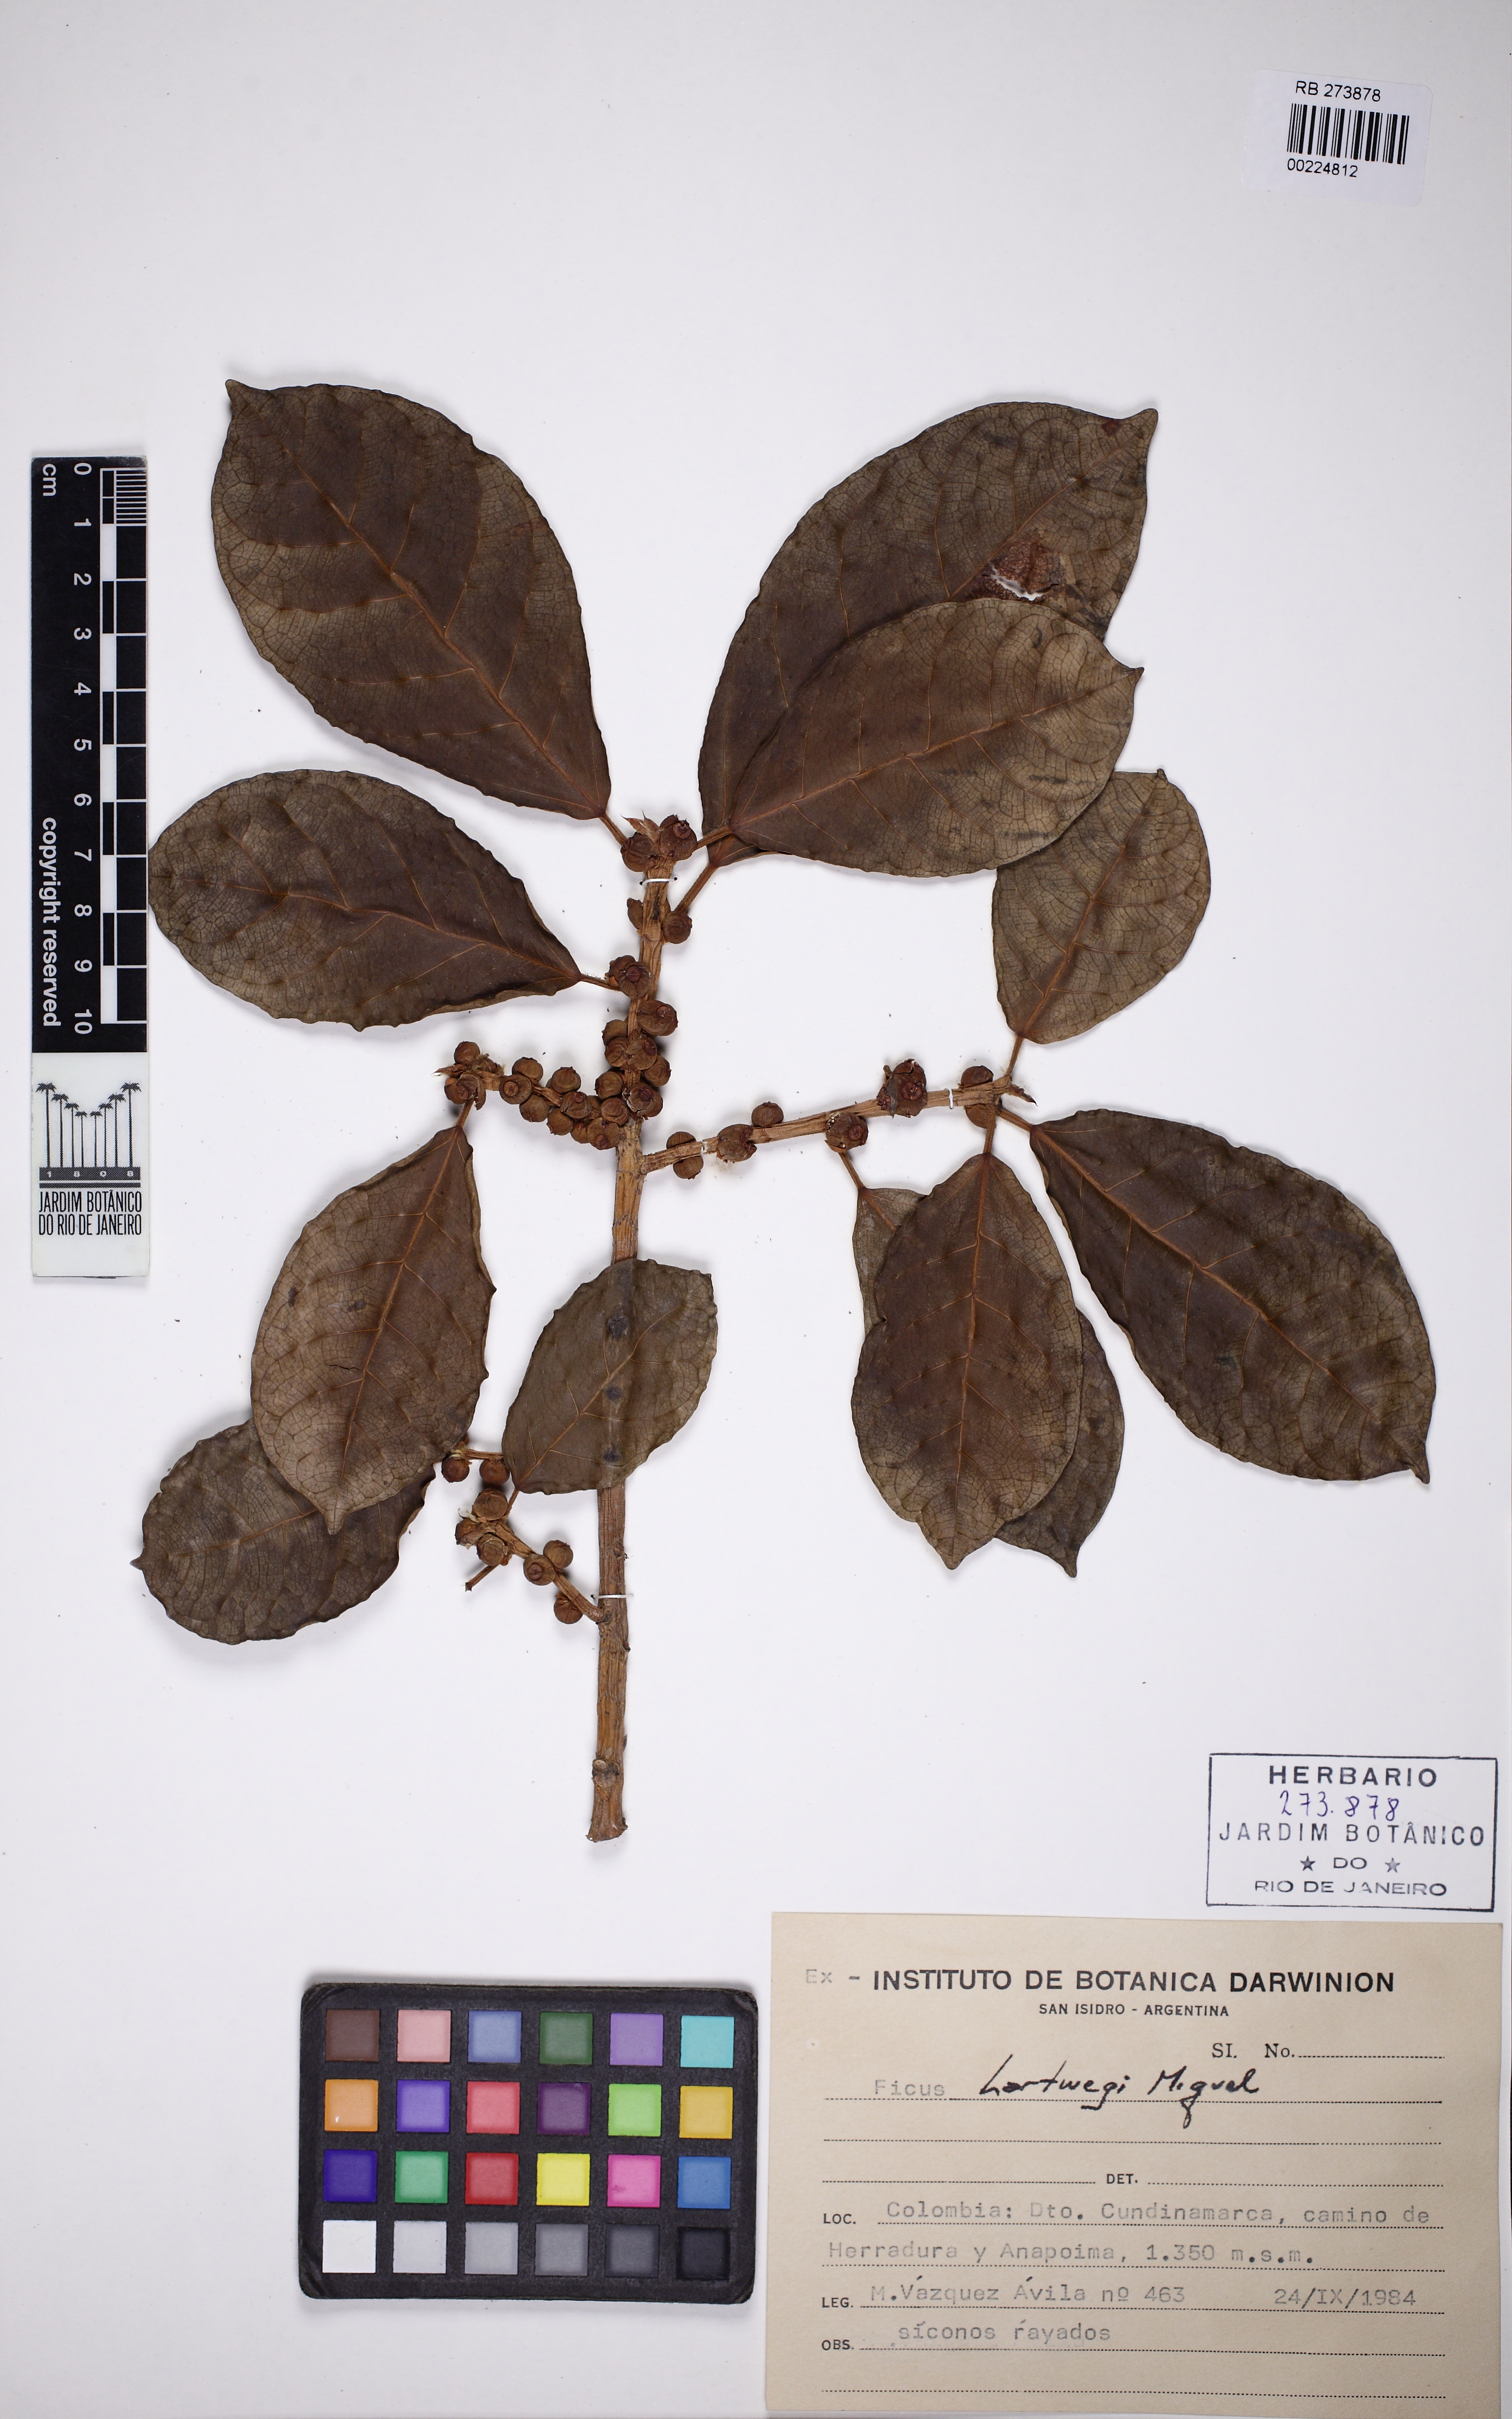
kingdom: Plantae
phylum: Tracheophyta
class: Magnoliopsida
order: Rosales
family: Moraceae
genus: Ficus
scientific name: Ficus hartwegii
